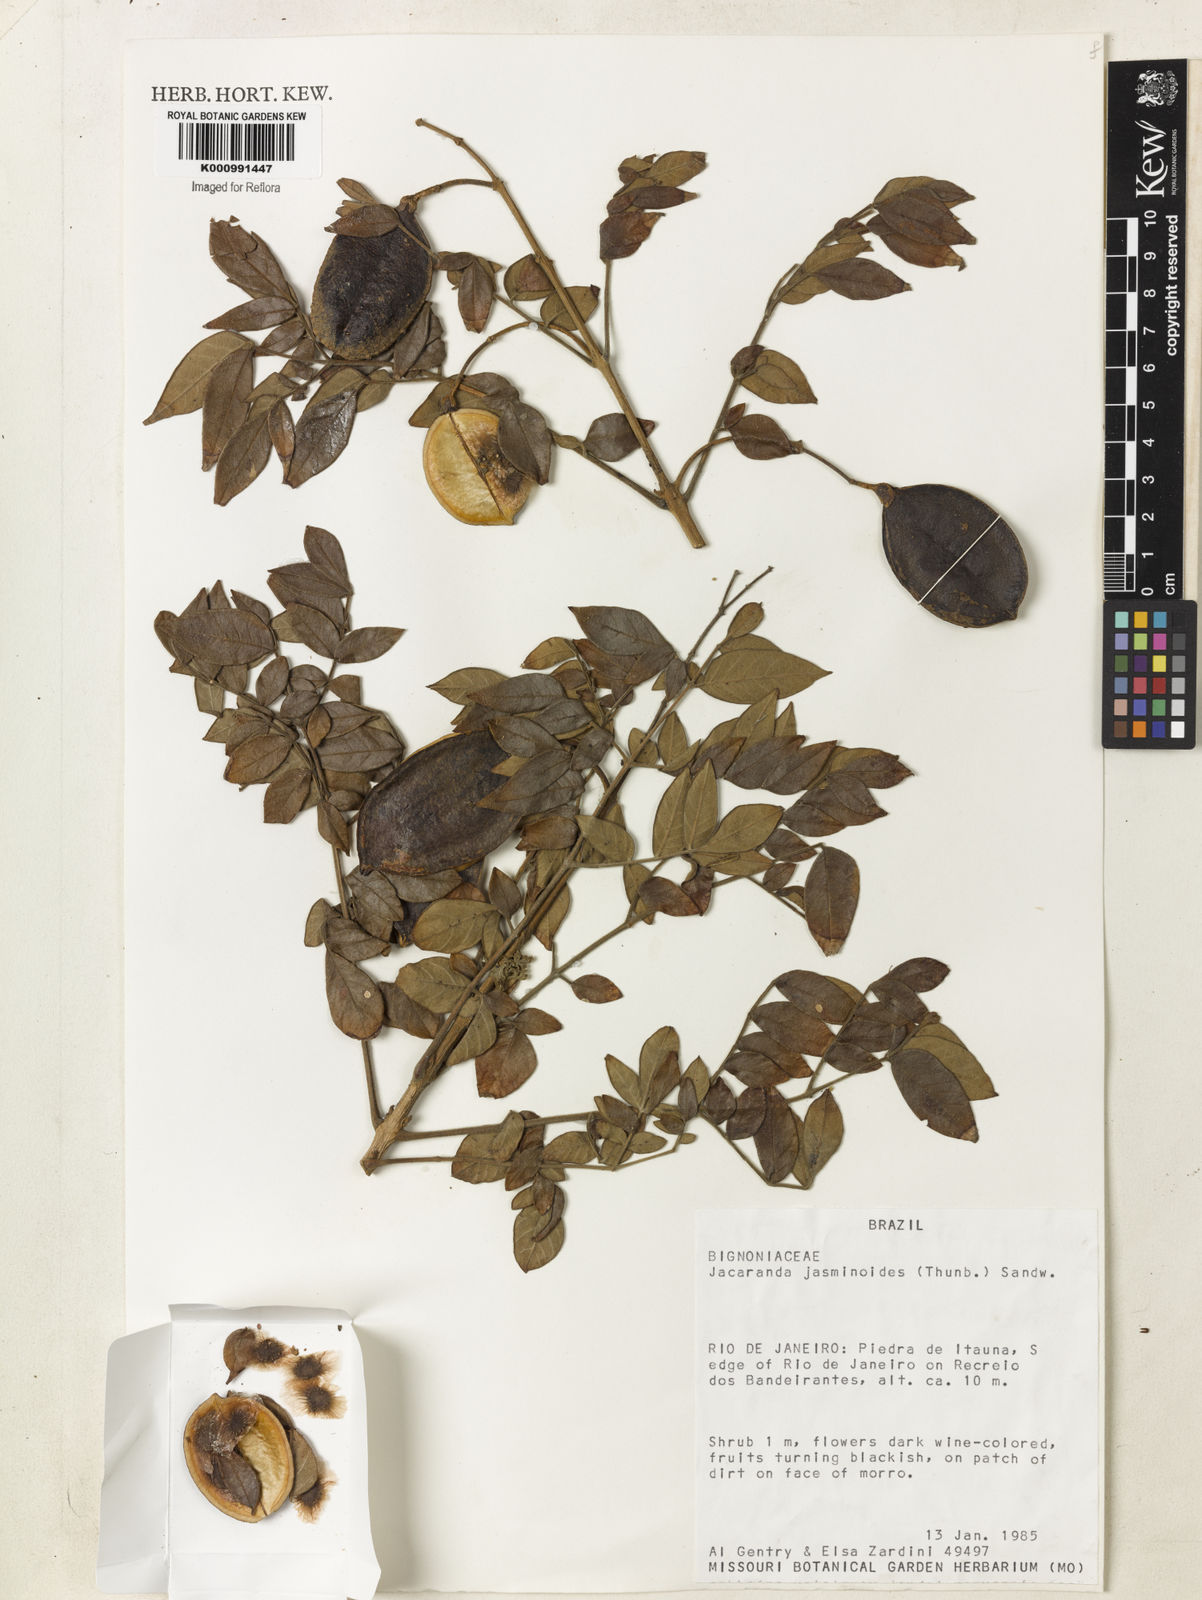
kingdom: Plantae
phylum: Tracheophyta
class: Magnoliopsida
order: Lamiales
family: Bignoniaceae
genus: Jacaranda
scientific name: Jacaranda jasminoides
